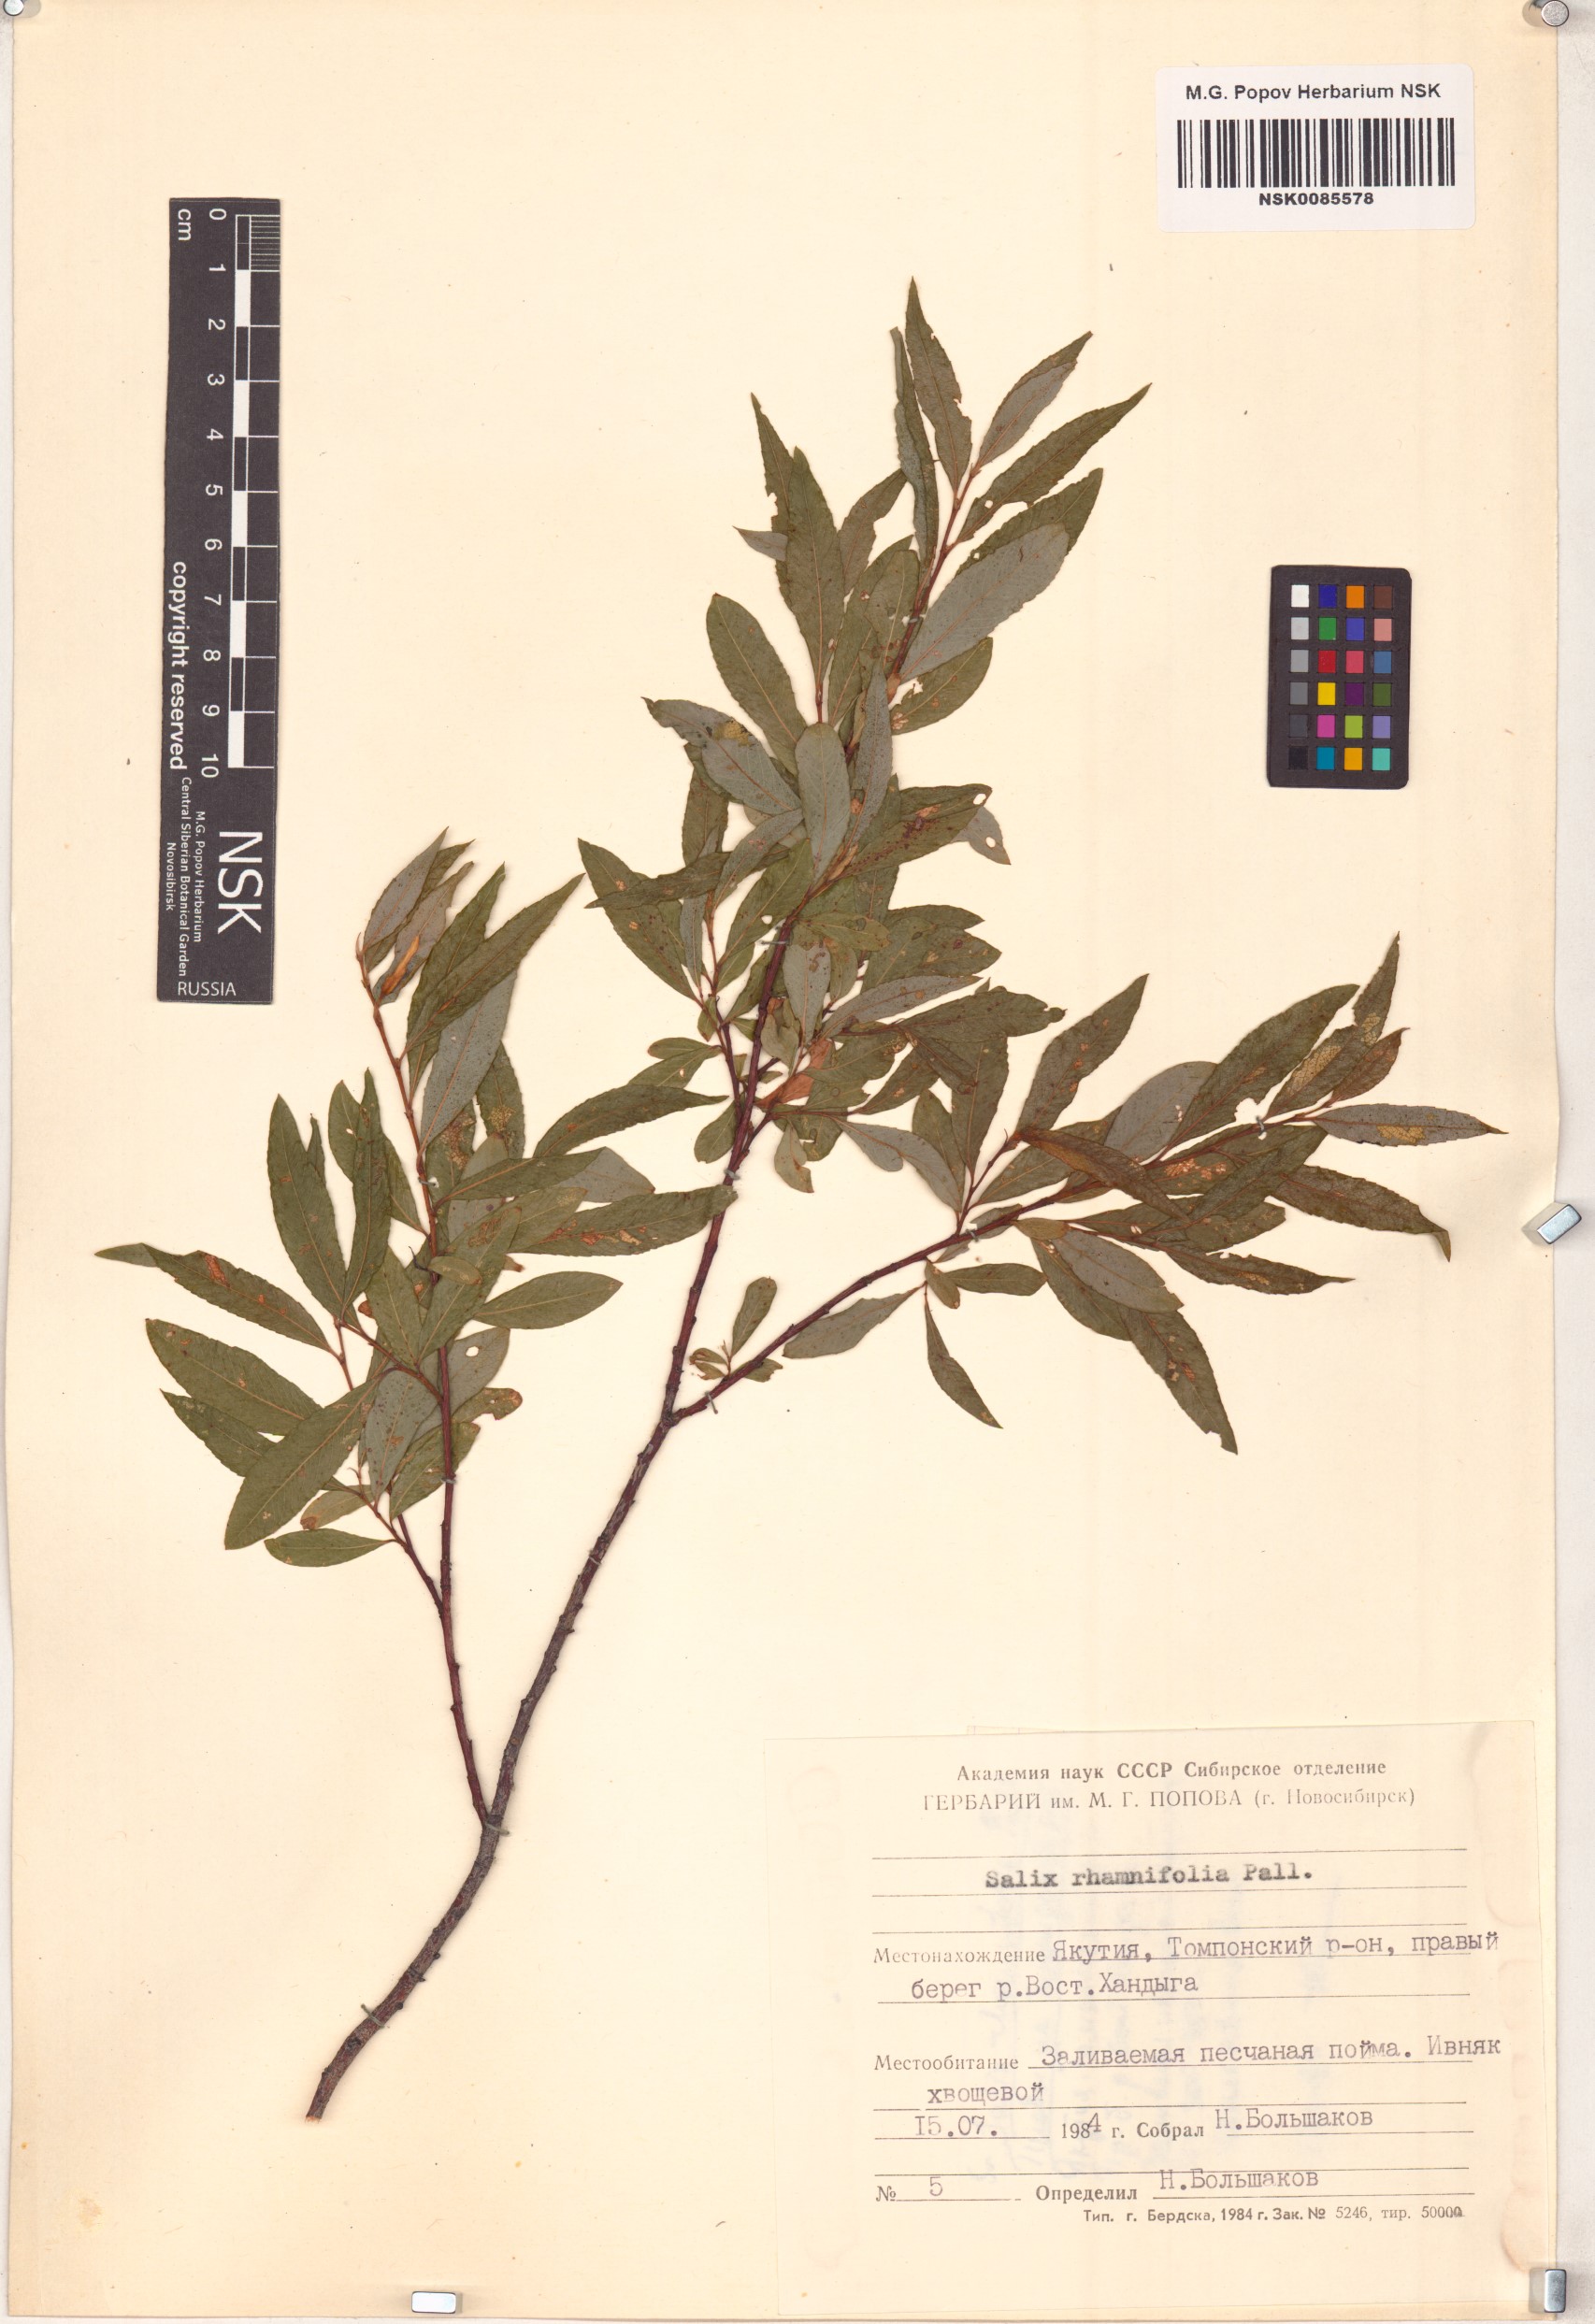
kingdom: Plantae
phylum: Tracheophyta
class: Magnoliopsida
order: Malpighiales
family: Salicaceae
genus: Salix
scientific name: Salix rhamnifolia
